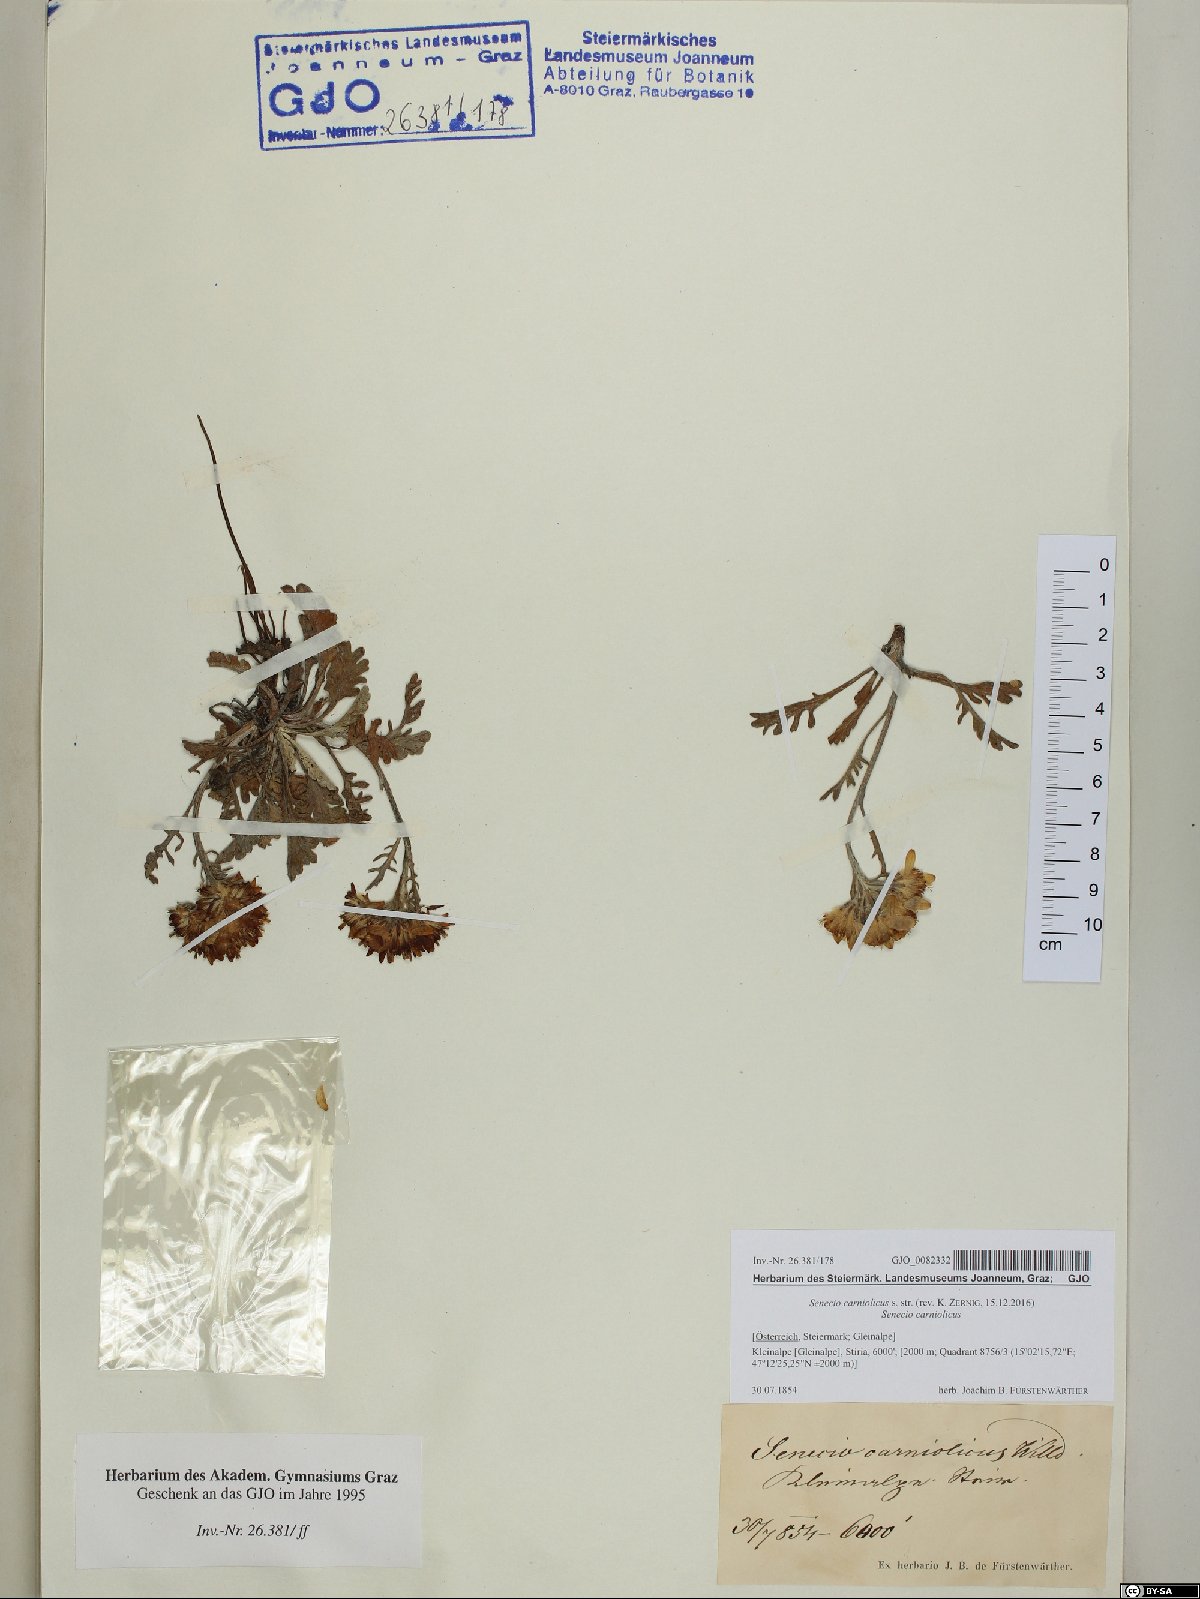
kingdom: Plantae
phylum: Tracheophyta
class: Magnoliopsida
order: Asterales
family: Asteraceae
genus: Jacobaea
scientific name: Jacobaea carniolica
